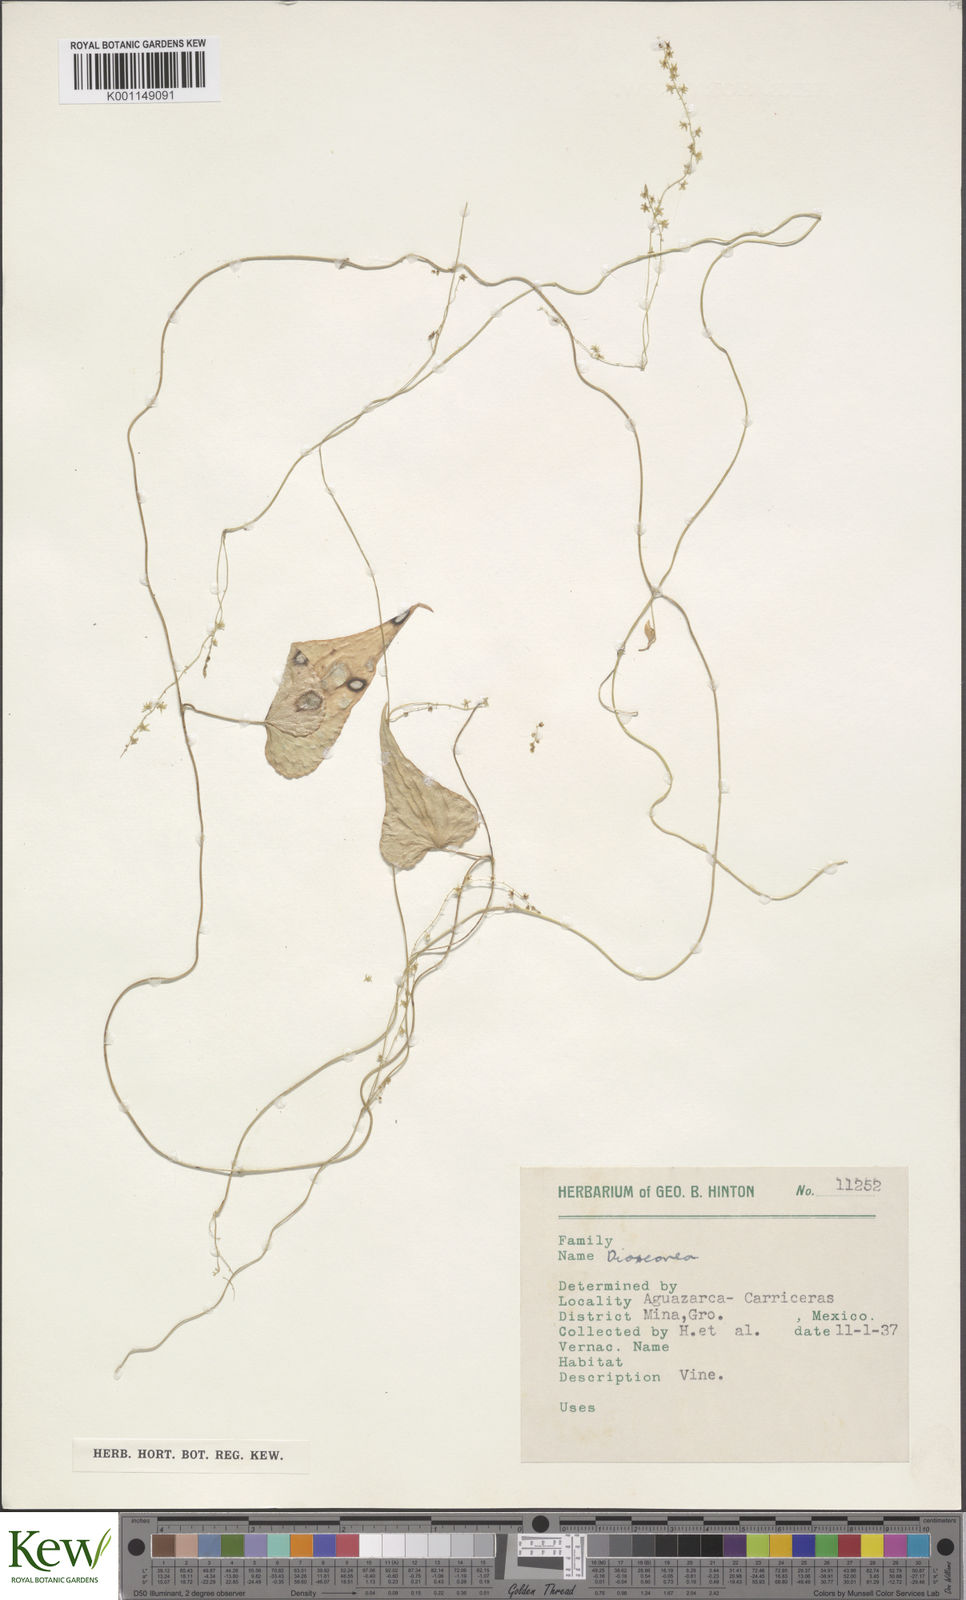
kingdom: Plantae
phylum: Tracheophyta
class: Liliopsida
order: Dioscoreales
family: Dioscoreaceae
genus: Dioscorea
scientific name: Dioscorea
